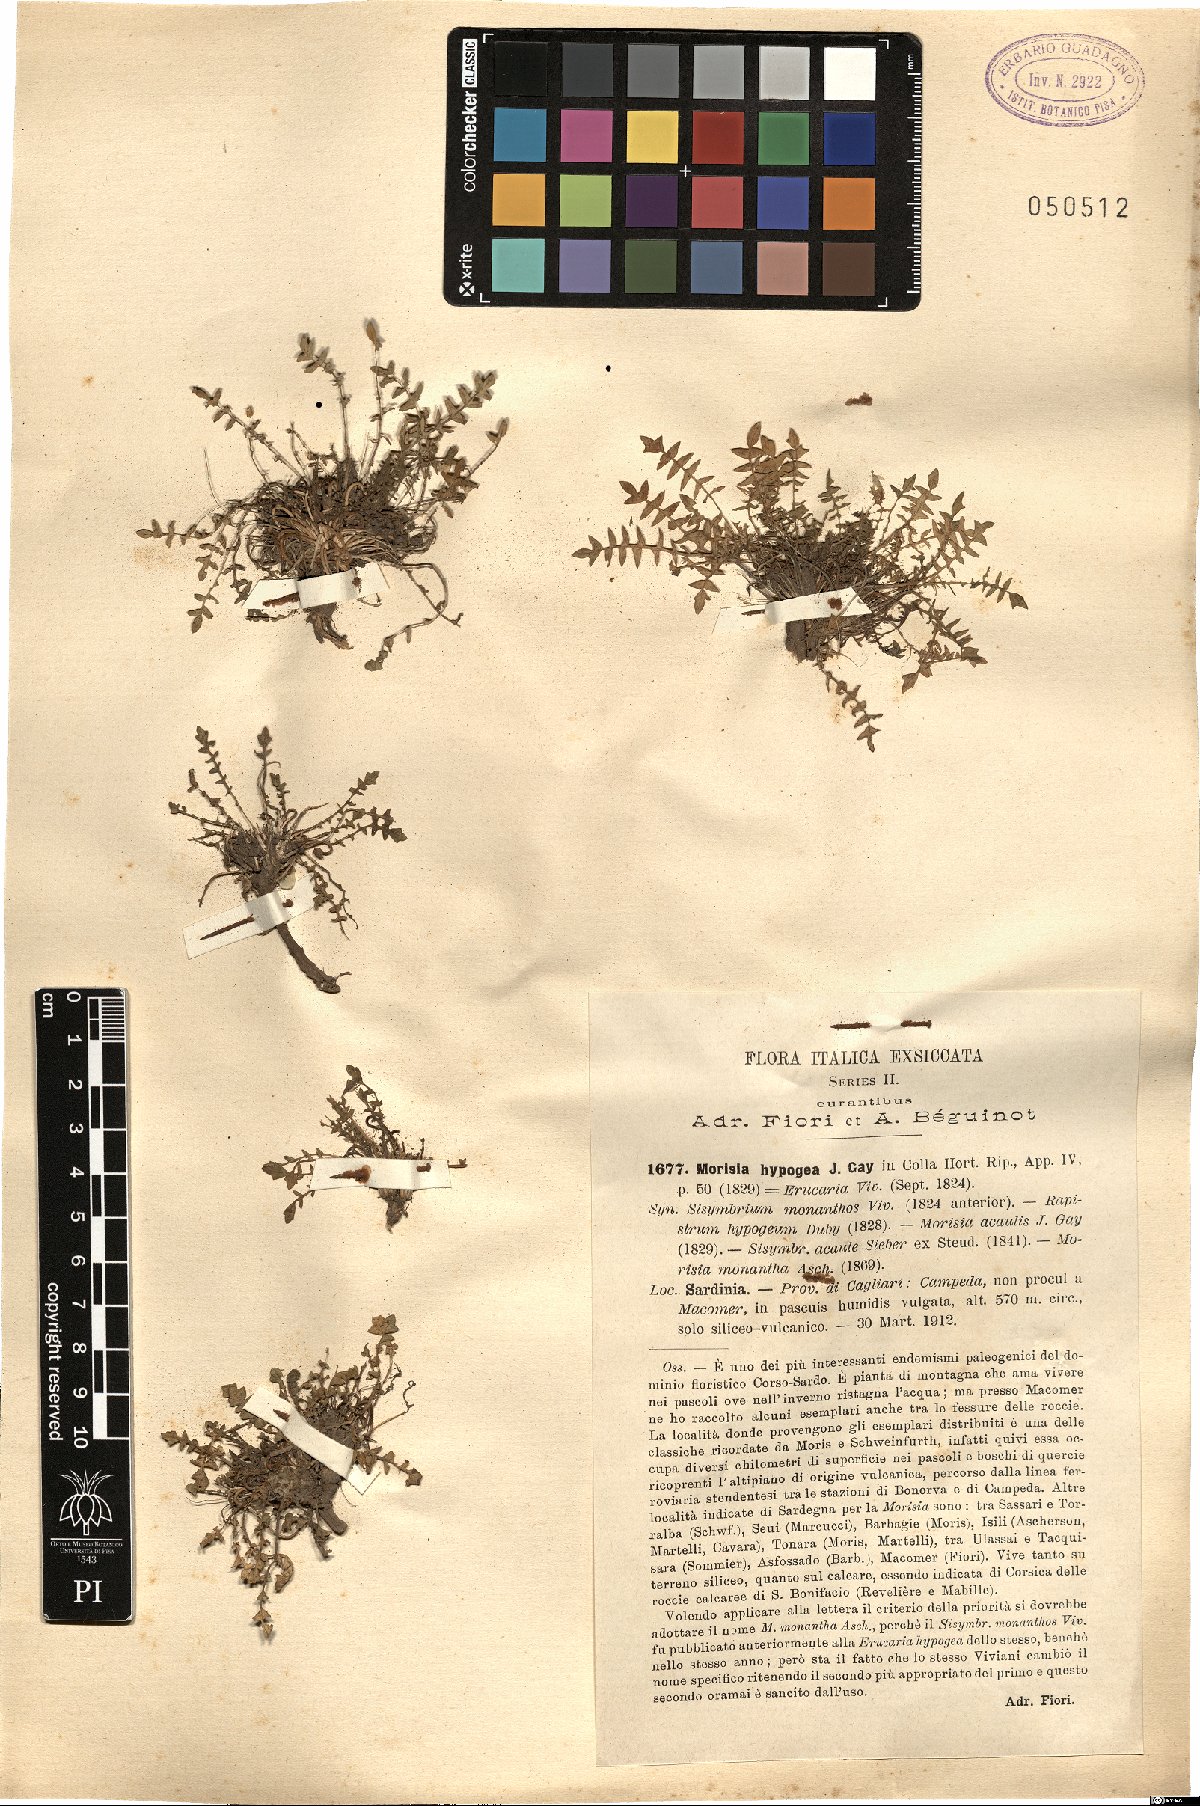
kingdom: Plantae
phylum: Tracheophyta
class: Magnoliopsida
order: Brassicales
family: Brassicaceae
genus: Morisia
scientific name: Morisia hypogaea
